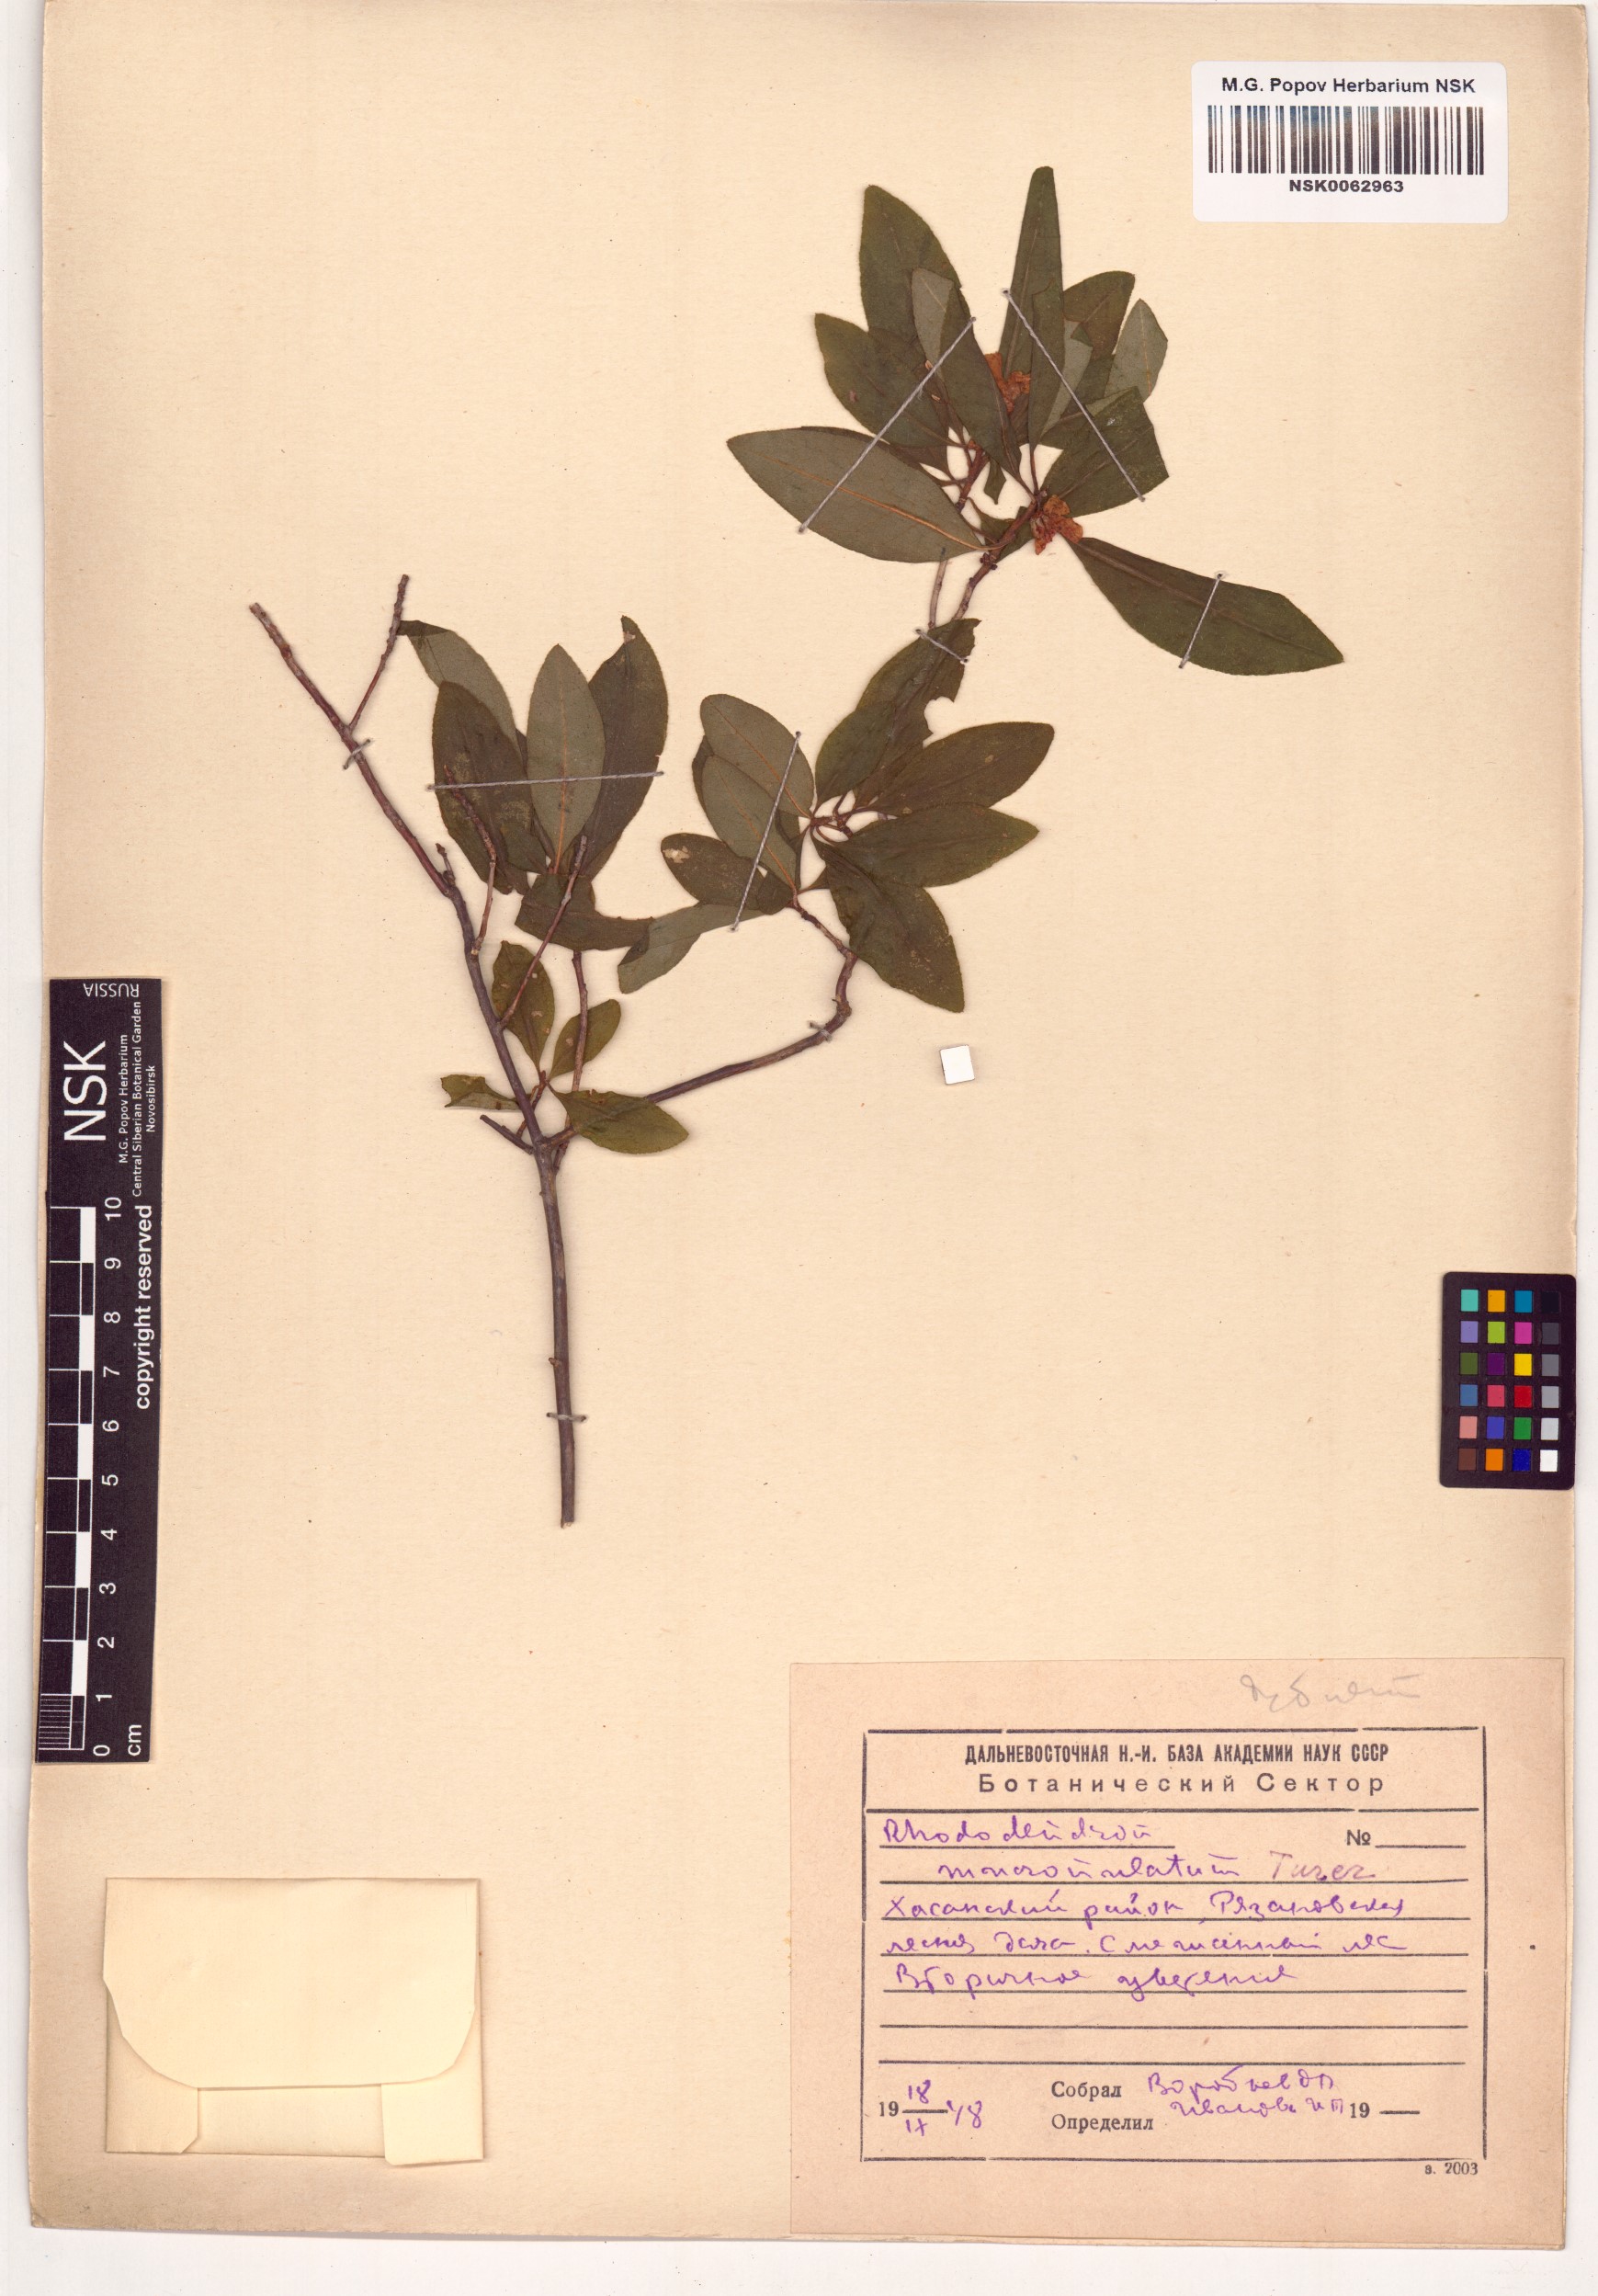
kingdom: Plantae
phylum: Tracheophyta
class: Magnoliopsida
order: Ericales
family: Ericaceae
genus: Rhododendron
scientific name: Rhododendron mucronulatum
